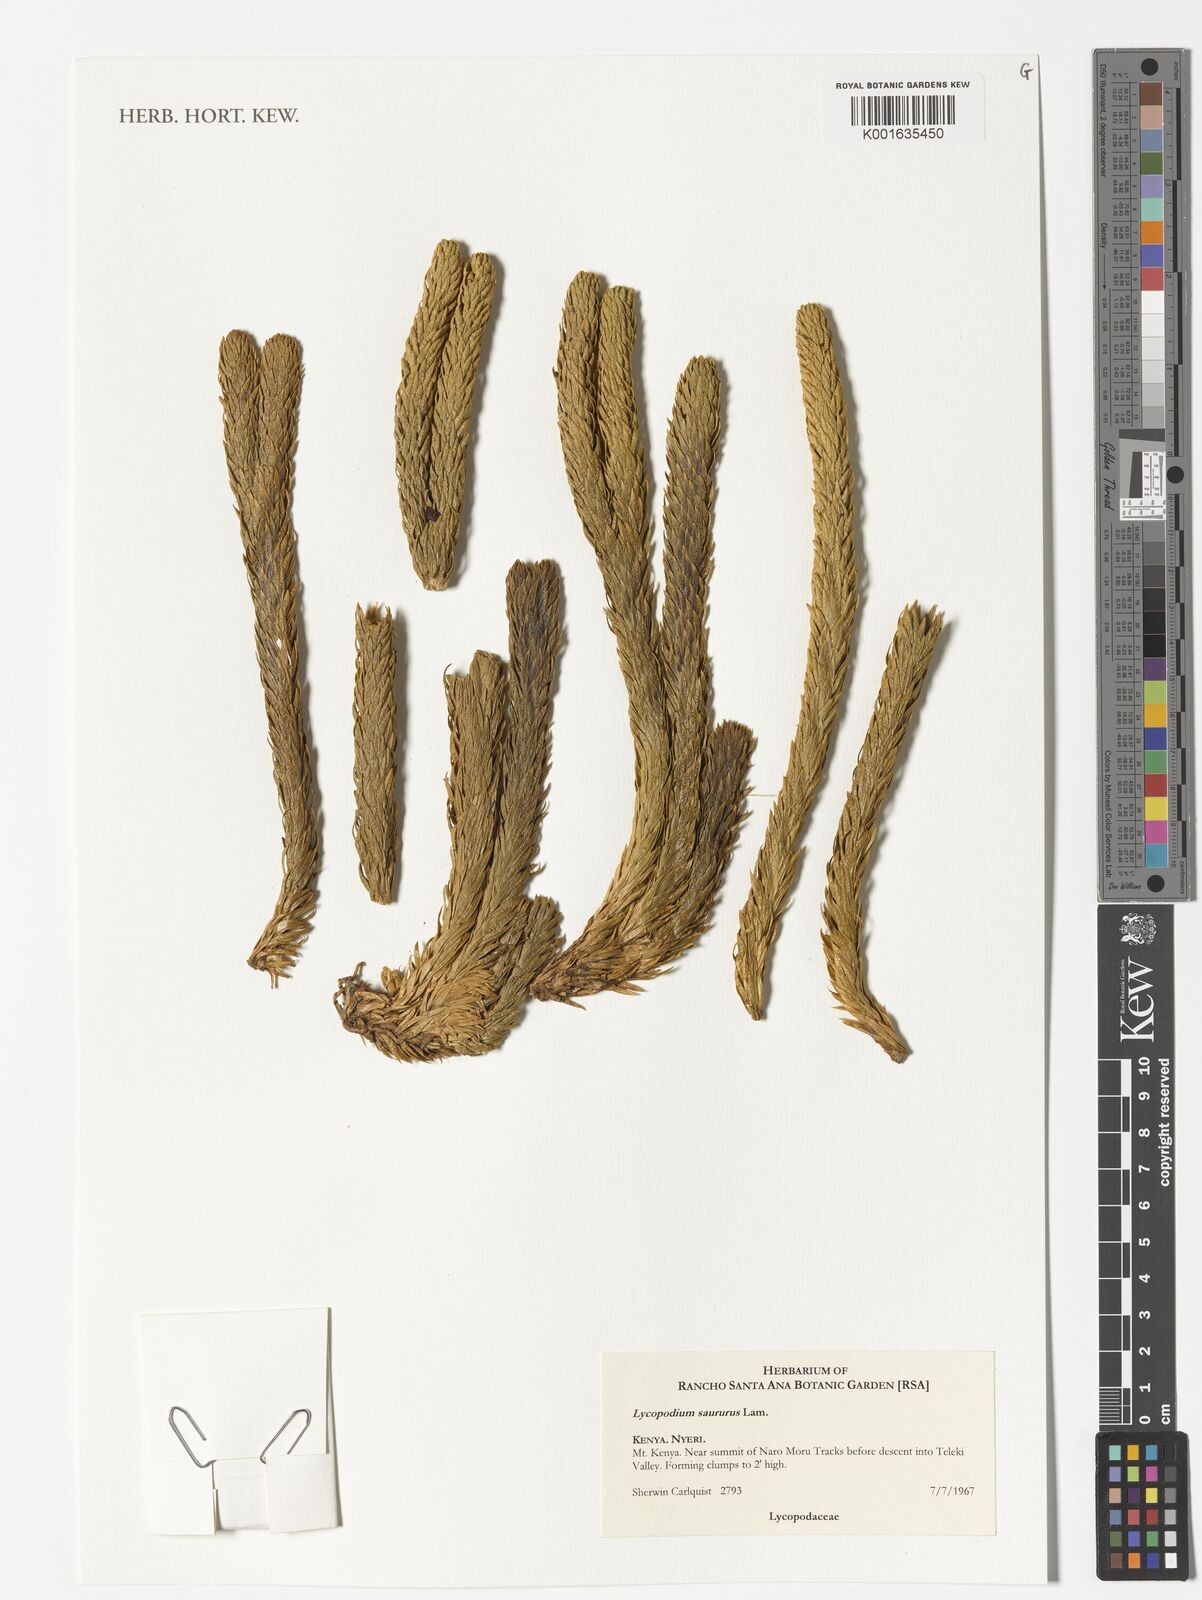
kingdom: Plantae
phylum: Tracheophyta
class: Lycopodiopsida
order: Lycopodiales
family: Lycopodiaceae
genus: Phlegmariurus
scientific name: Phlegmariurus saururus
